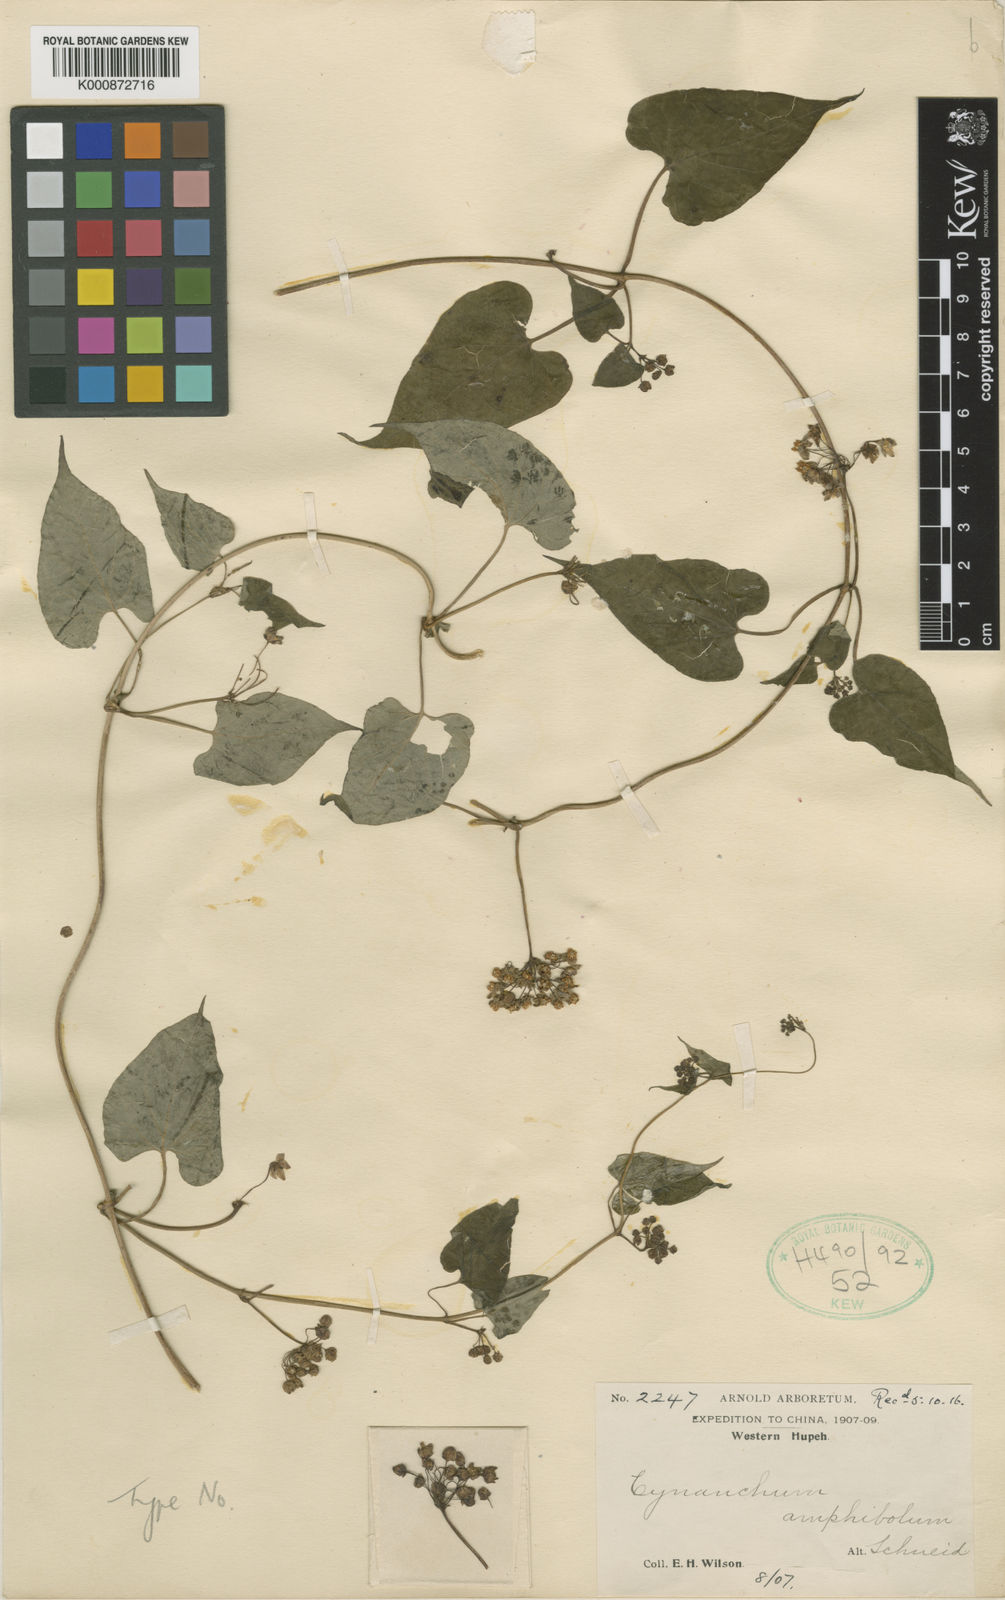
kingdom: Plantae
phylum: Tracheophyta
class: Magnoliopsida
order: Gentianales
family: Apocynaceae
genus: Cynanchum
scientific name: Cynanchum auriculatum
